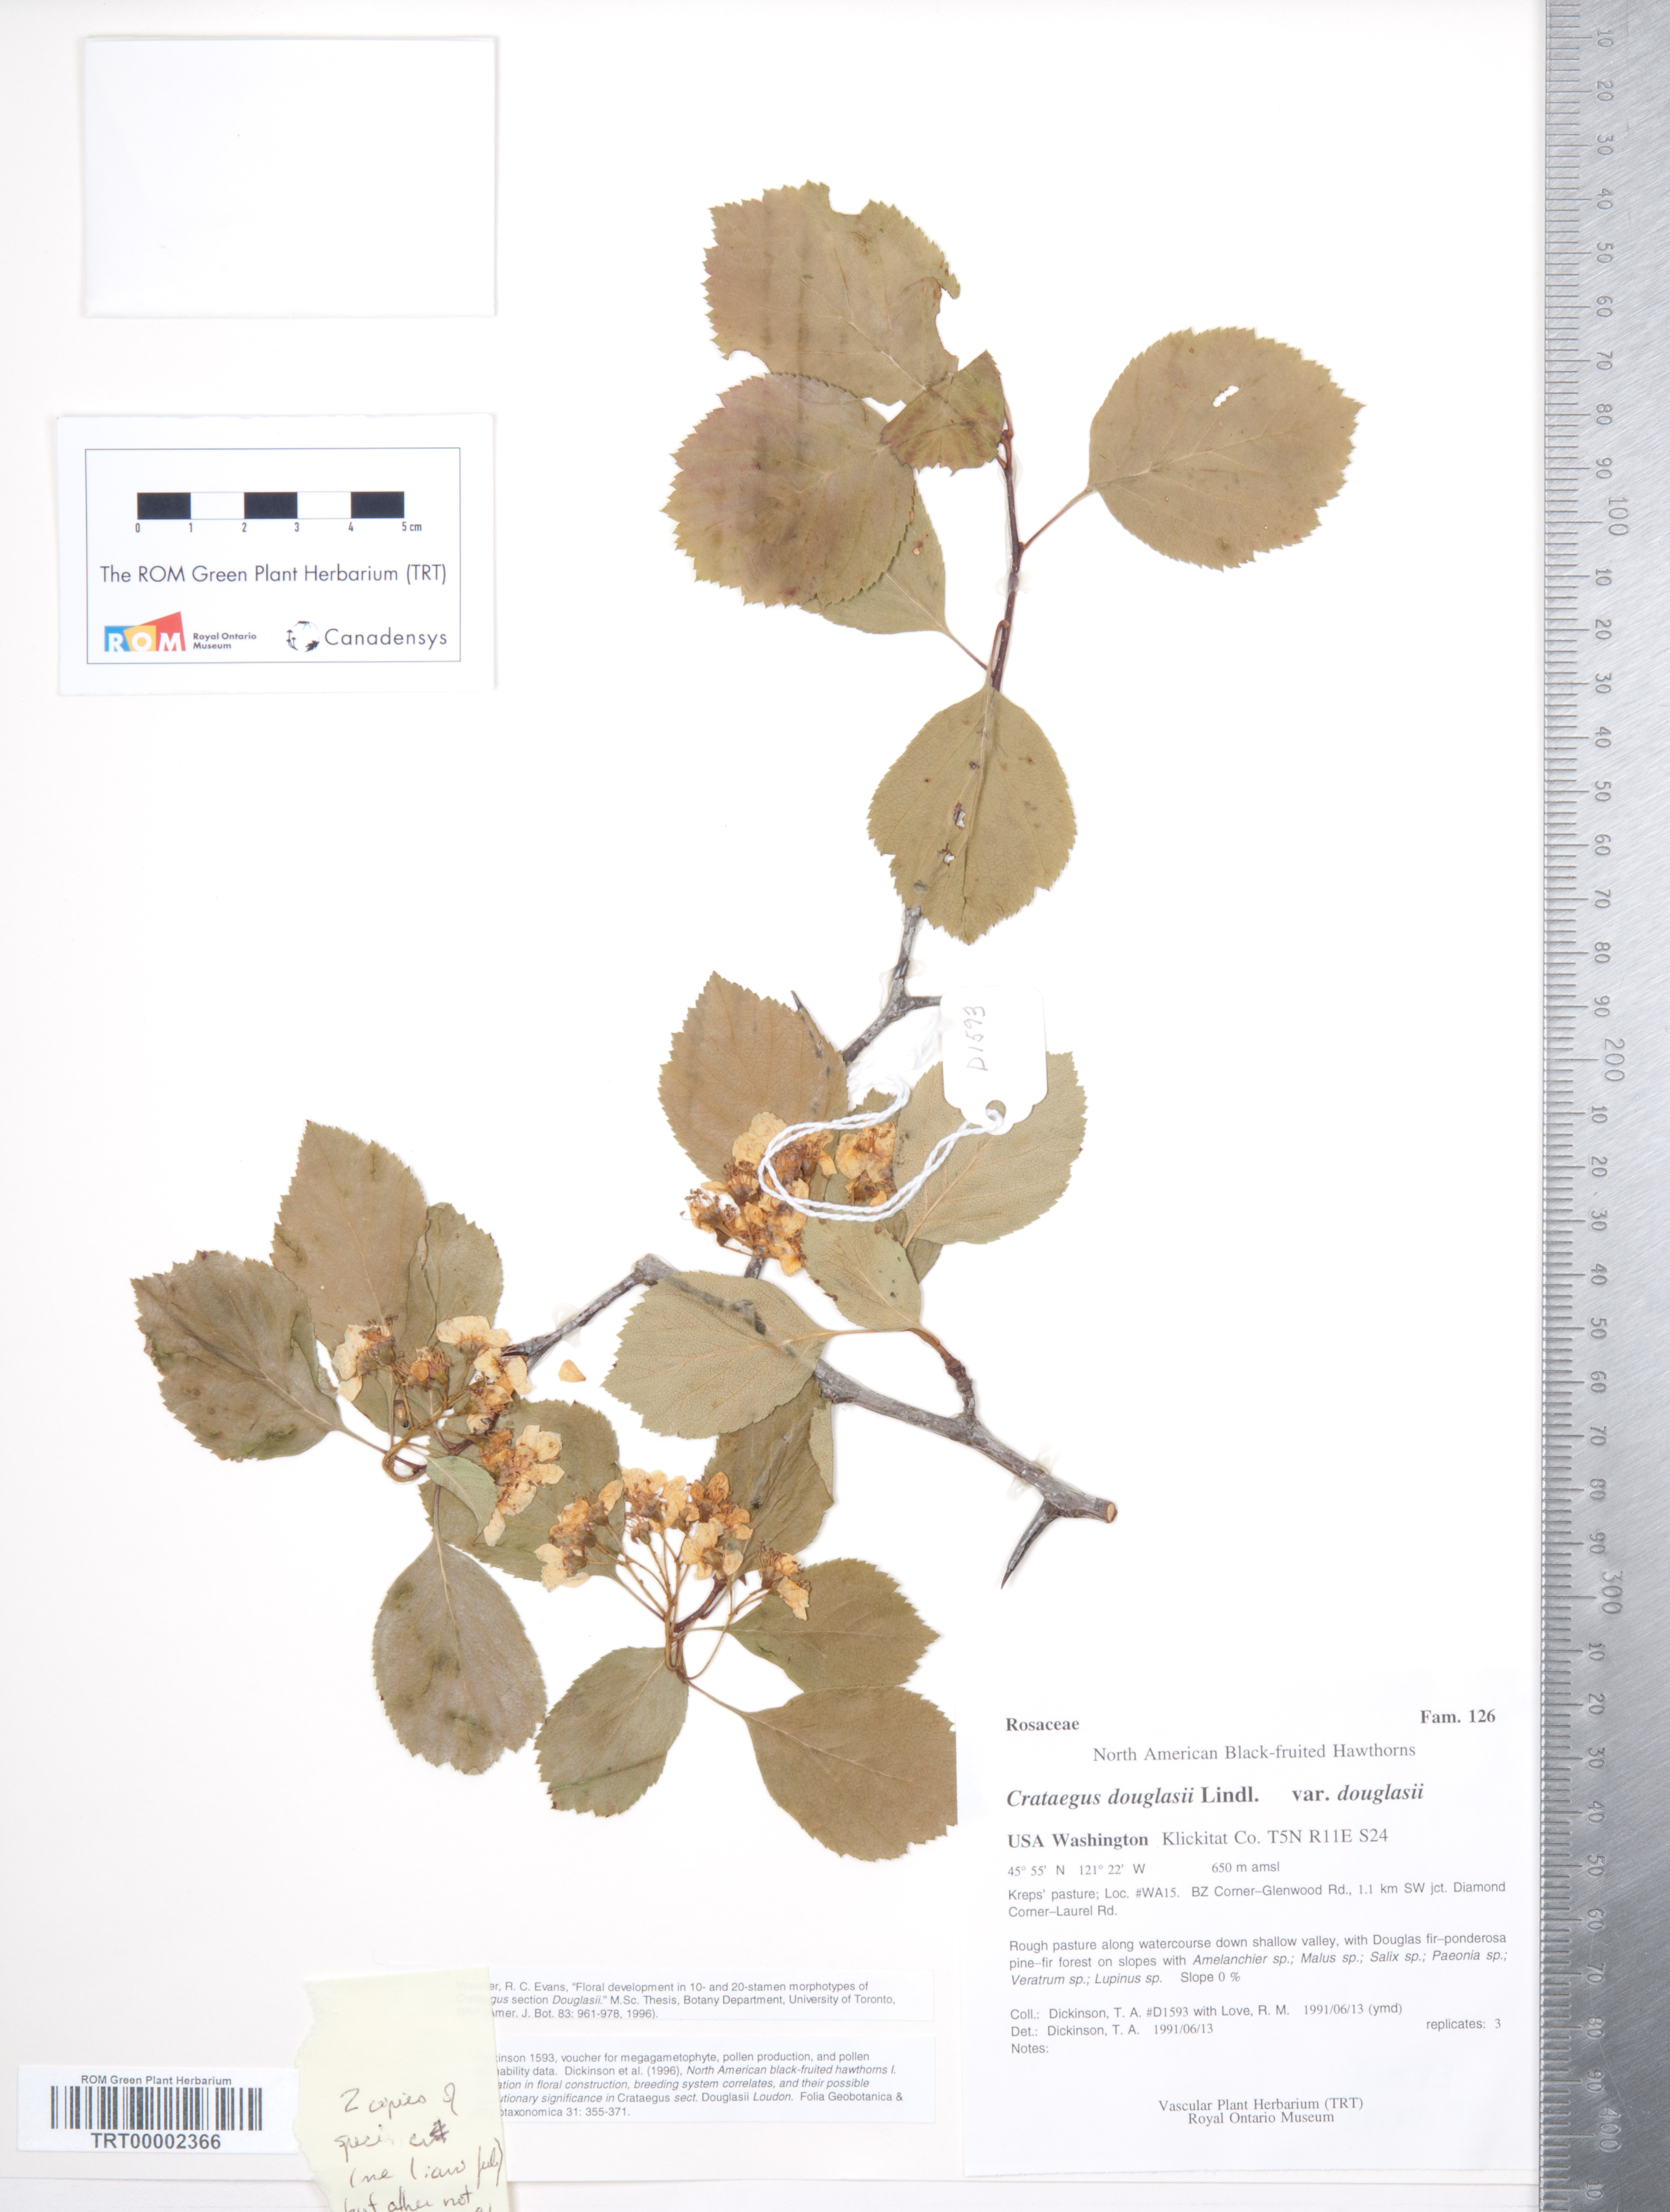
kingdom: Plantae
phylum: Tracheophyta
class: Magnoliopsida
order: Rosales
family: Rosaceae
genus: Crataegus
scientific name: Crataegus douglasii
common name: Black hawthorn
